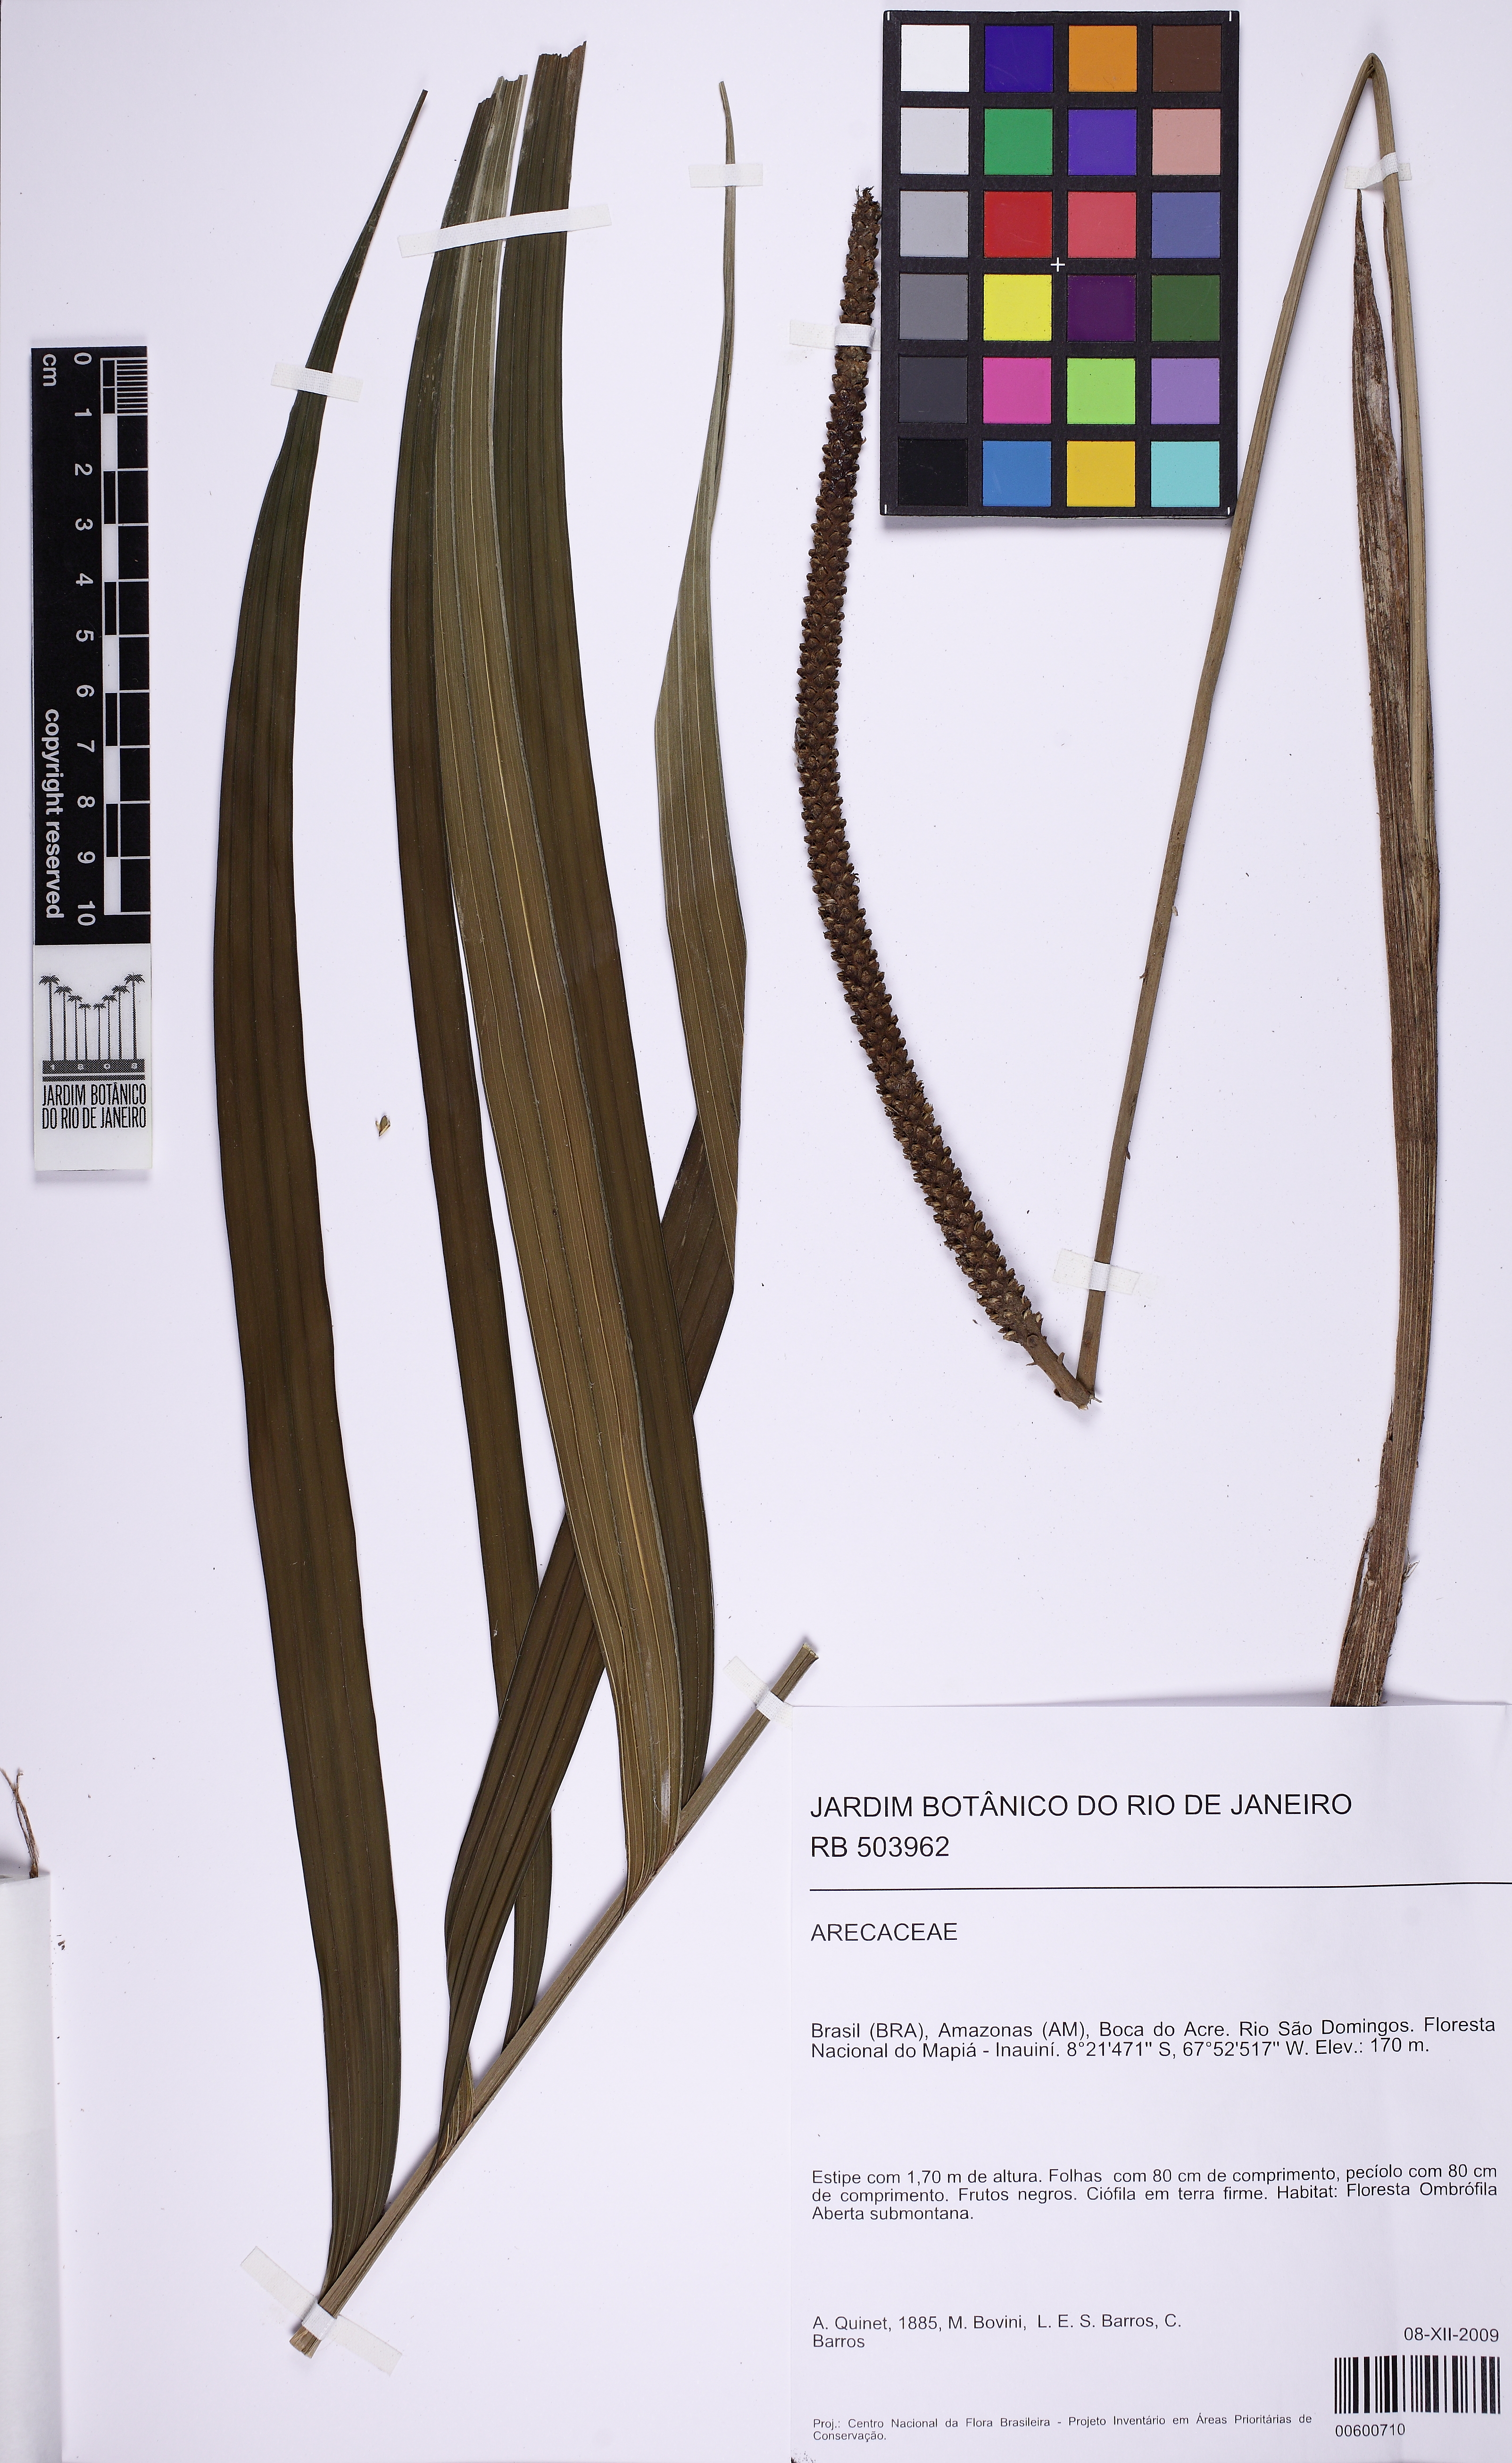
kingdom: Plantae
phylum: Tracheophyta
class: Liliopsida
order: Arecales
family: Arecaceae
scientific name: Arecaceae
